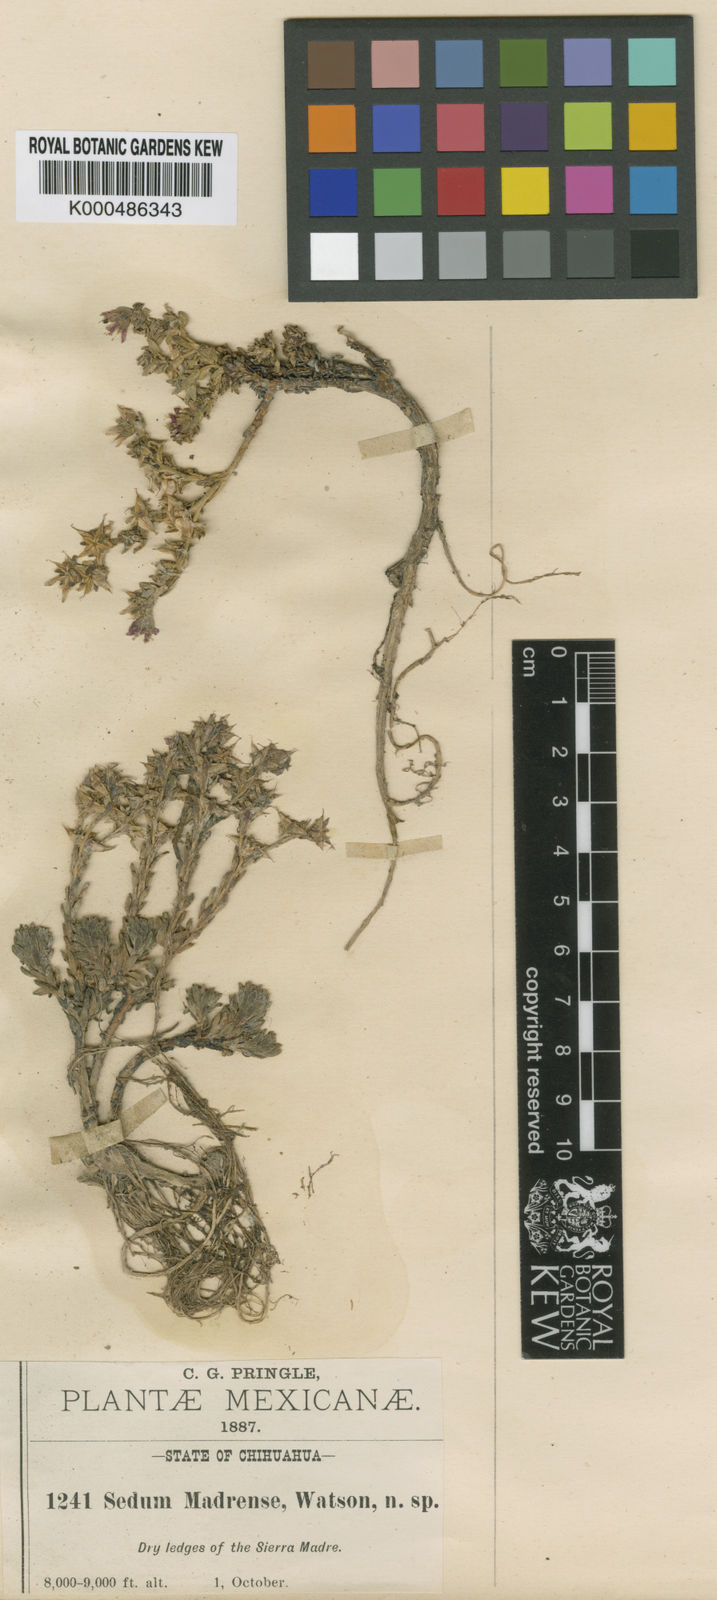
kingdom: Plantae
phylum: Tracheophyta
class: Magnoliopsida
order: Saxifragales
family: Crassulaceae
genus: Sedum
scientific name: Sedum madrense
